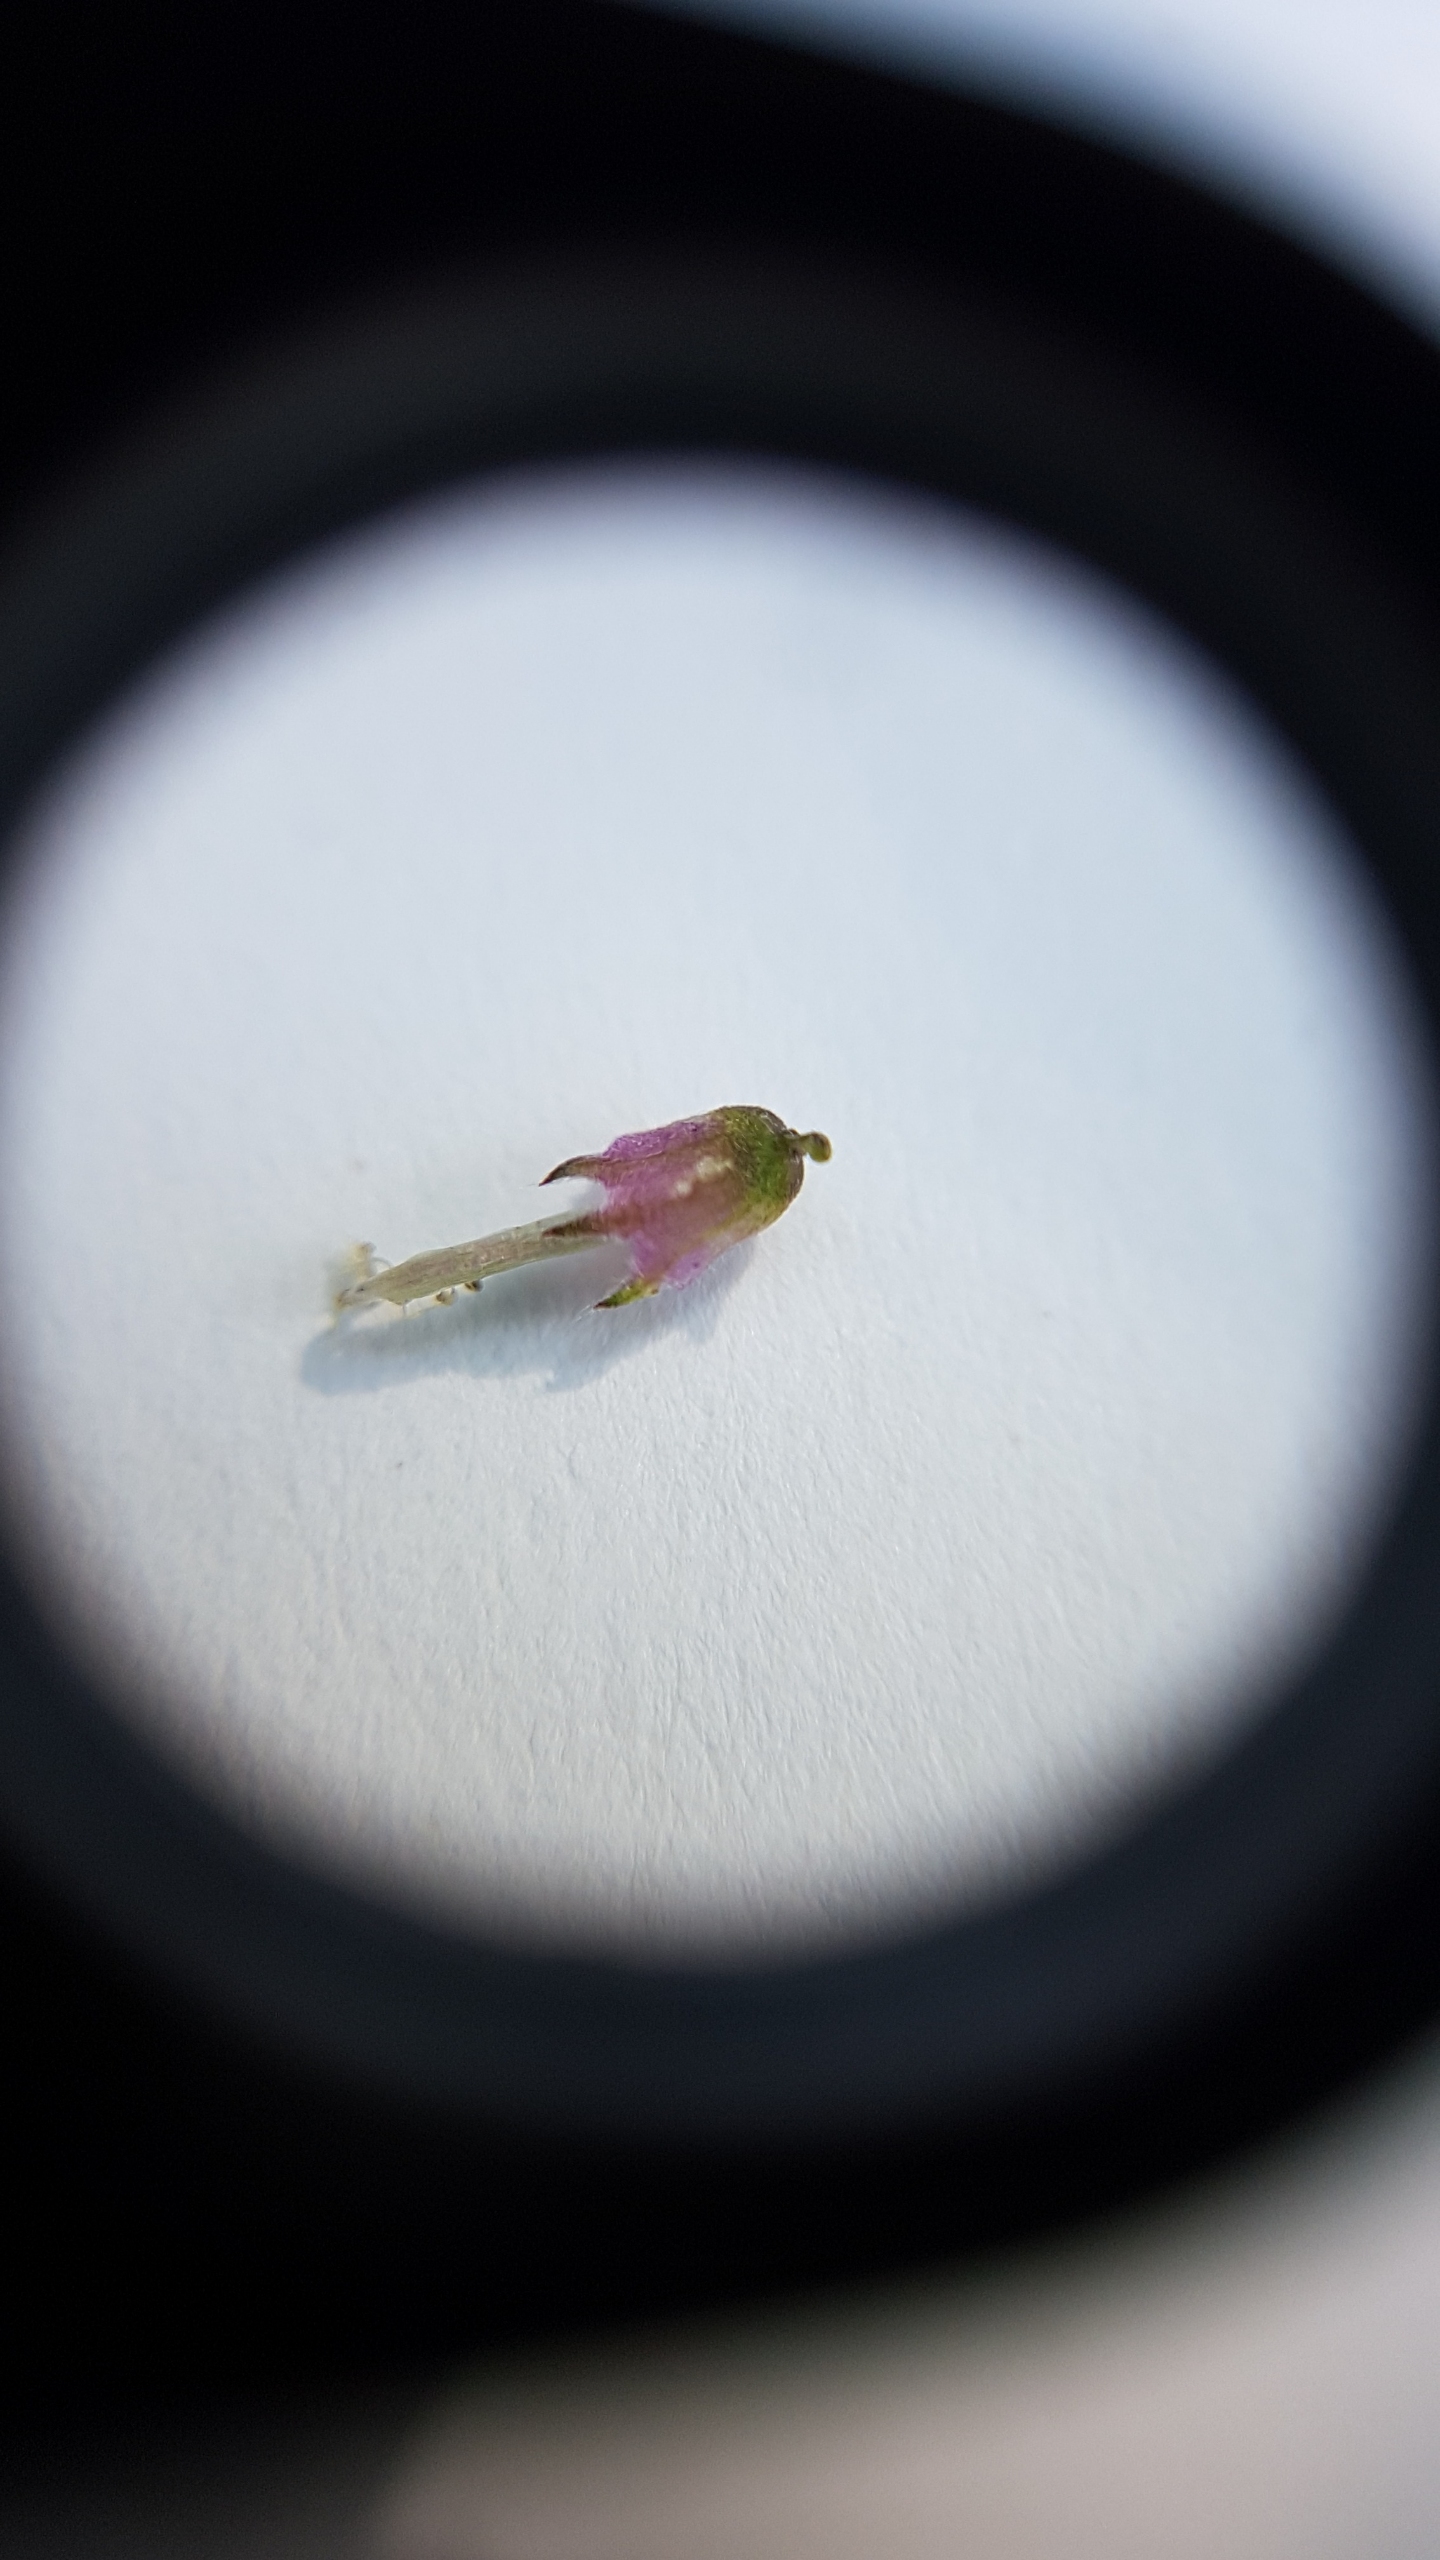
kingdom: Plantae
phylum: Tracheophyta
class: Magnoliopsida
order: Fabales
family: Fabaceae
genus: Vicia
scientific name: Vicia cracca
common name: Muse-vikke
